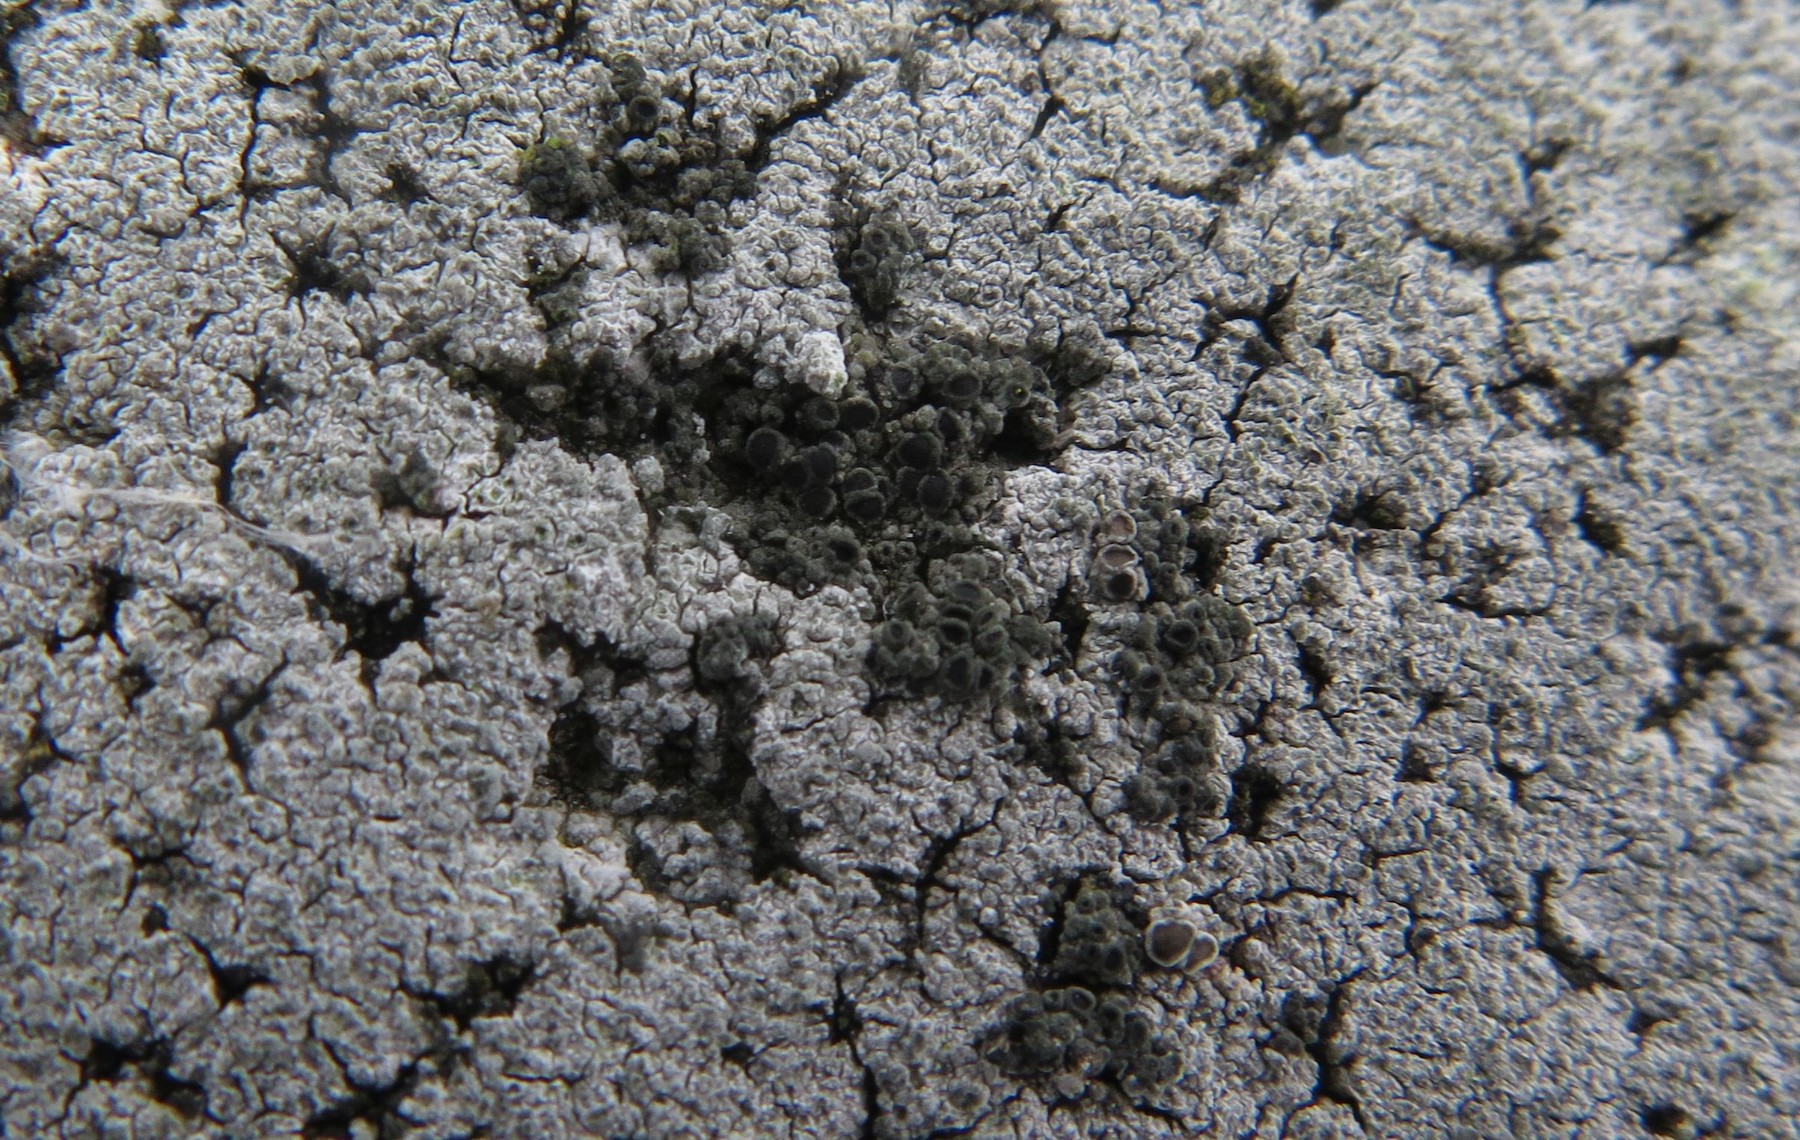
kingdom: Fungi
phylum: Ascomycota
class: Lecanoromycetes
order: Caliciales
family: Physciaceae
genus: Rinodina
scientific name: Rinodina oleae
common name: kyst-knaplav
